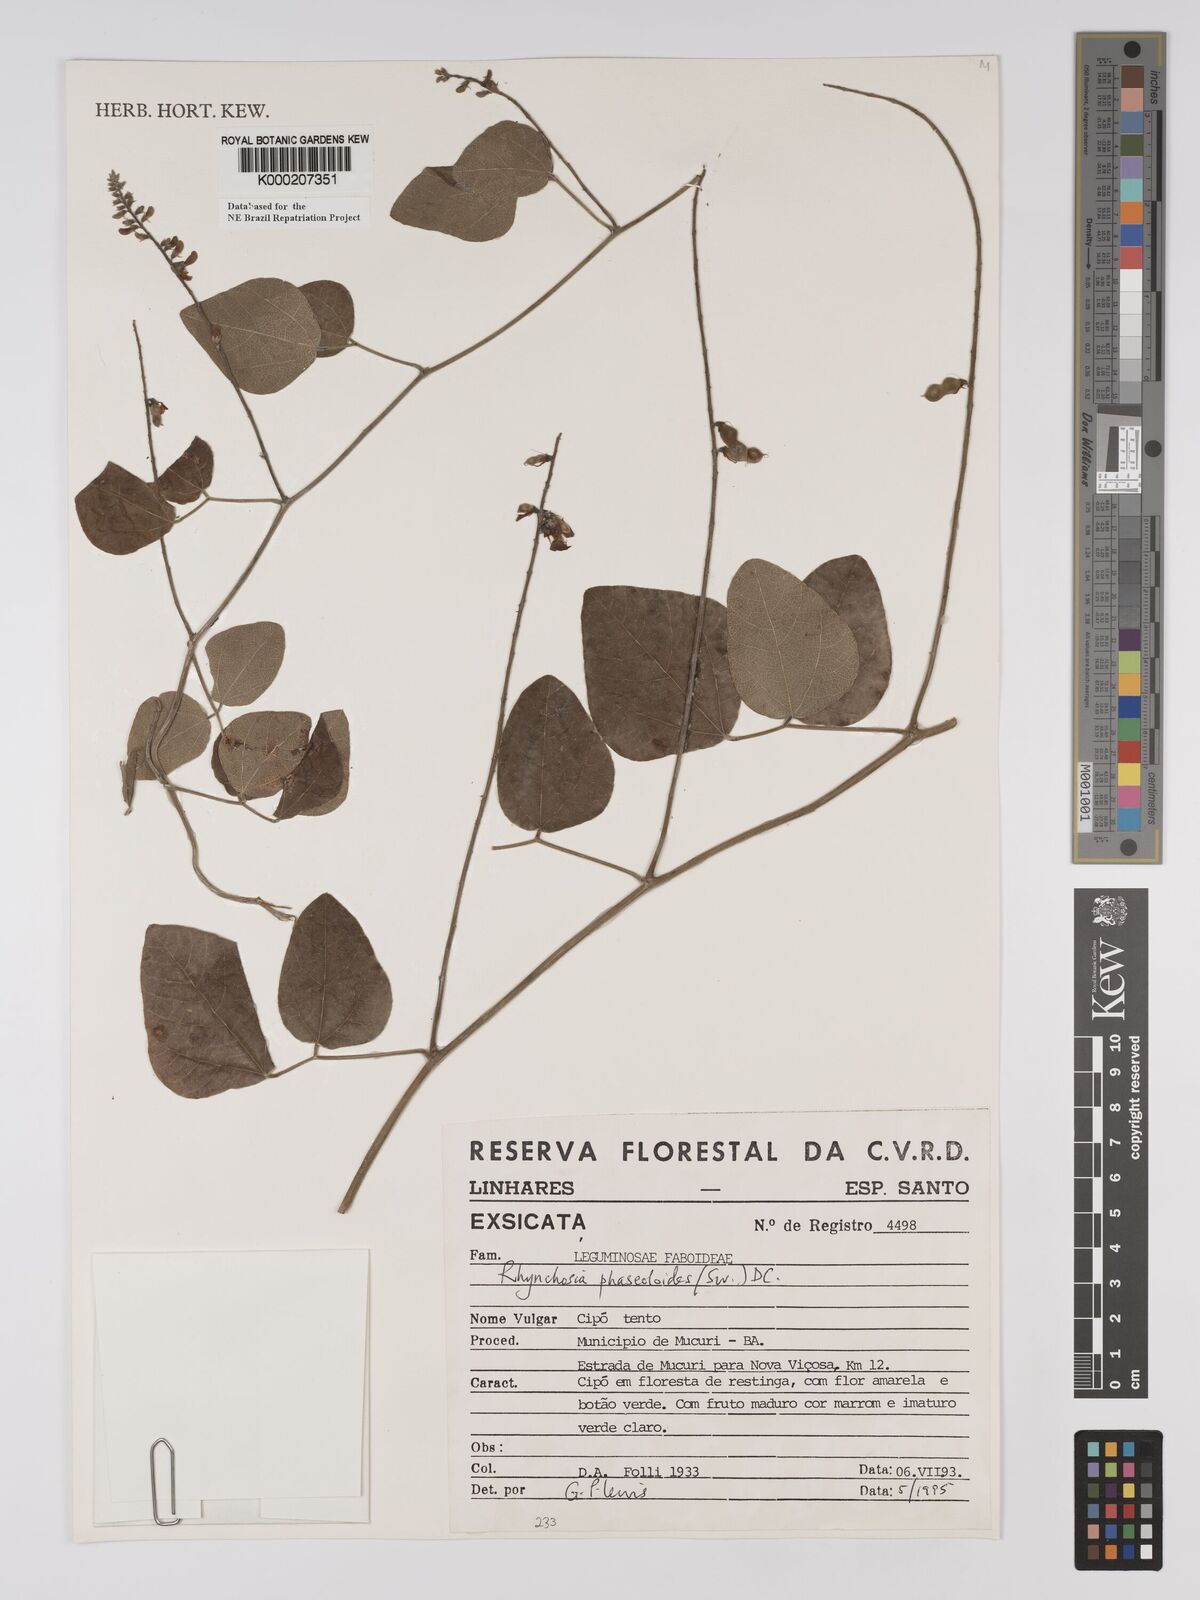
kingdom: Plantae
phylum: Tracheophyta
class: Magnoliopsida
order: Fabales
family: Fabaceae
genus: Rhynchosia
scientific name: Rhynchosia phaseoloides
